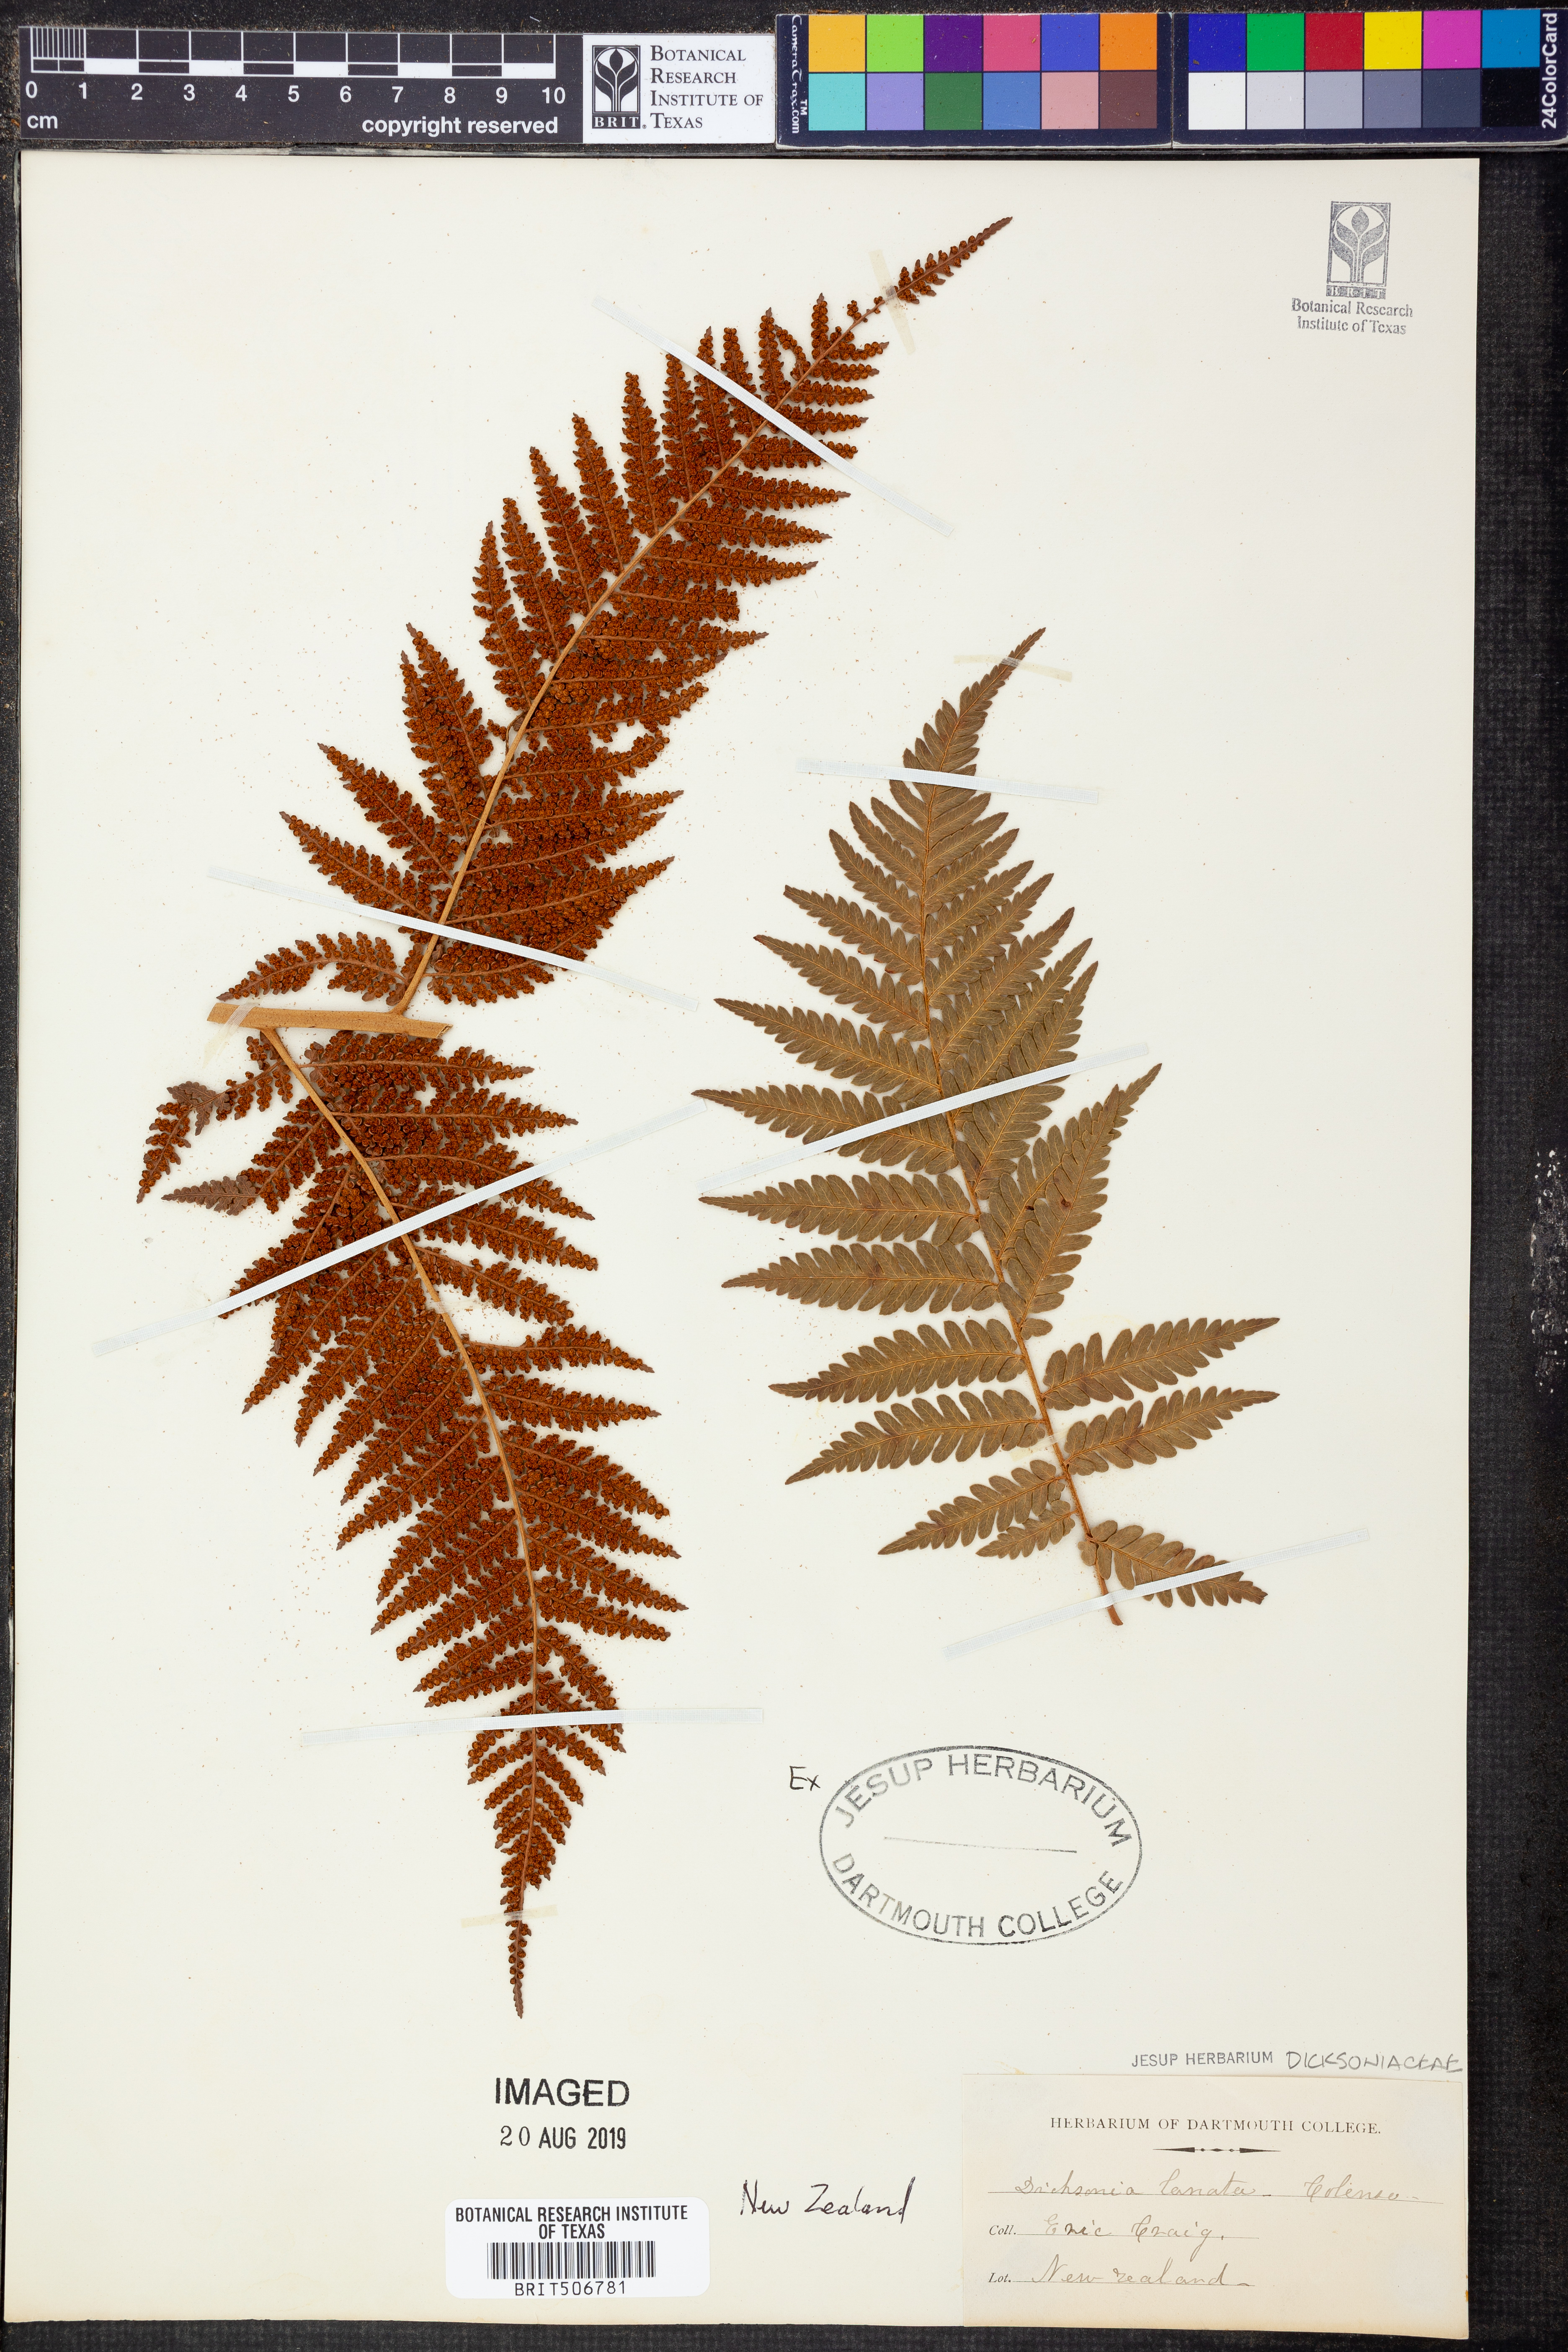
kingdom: Plantae
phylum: Tracheophyta
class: Polypodiopsida
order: Cyatheales
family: Dicksoniaceae
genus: Dicksonia
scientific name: Dicksonia lanata
